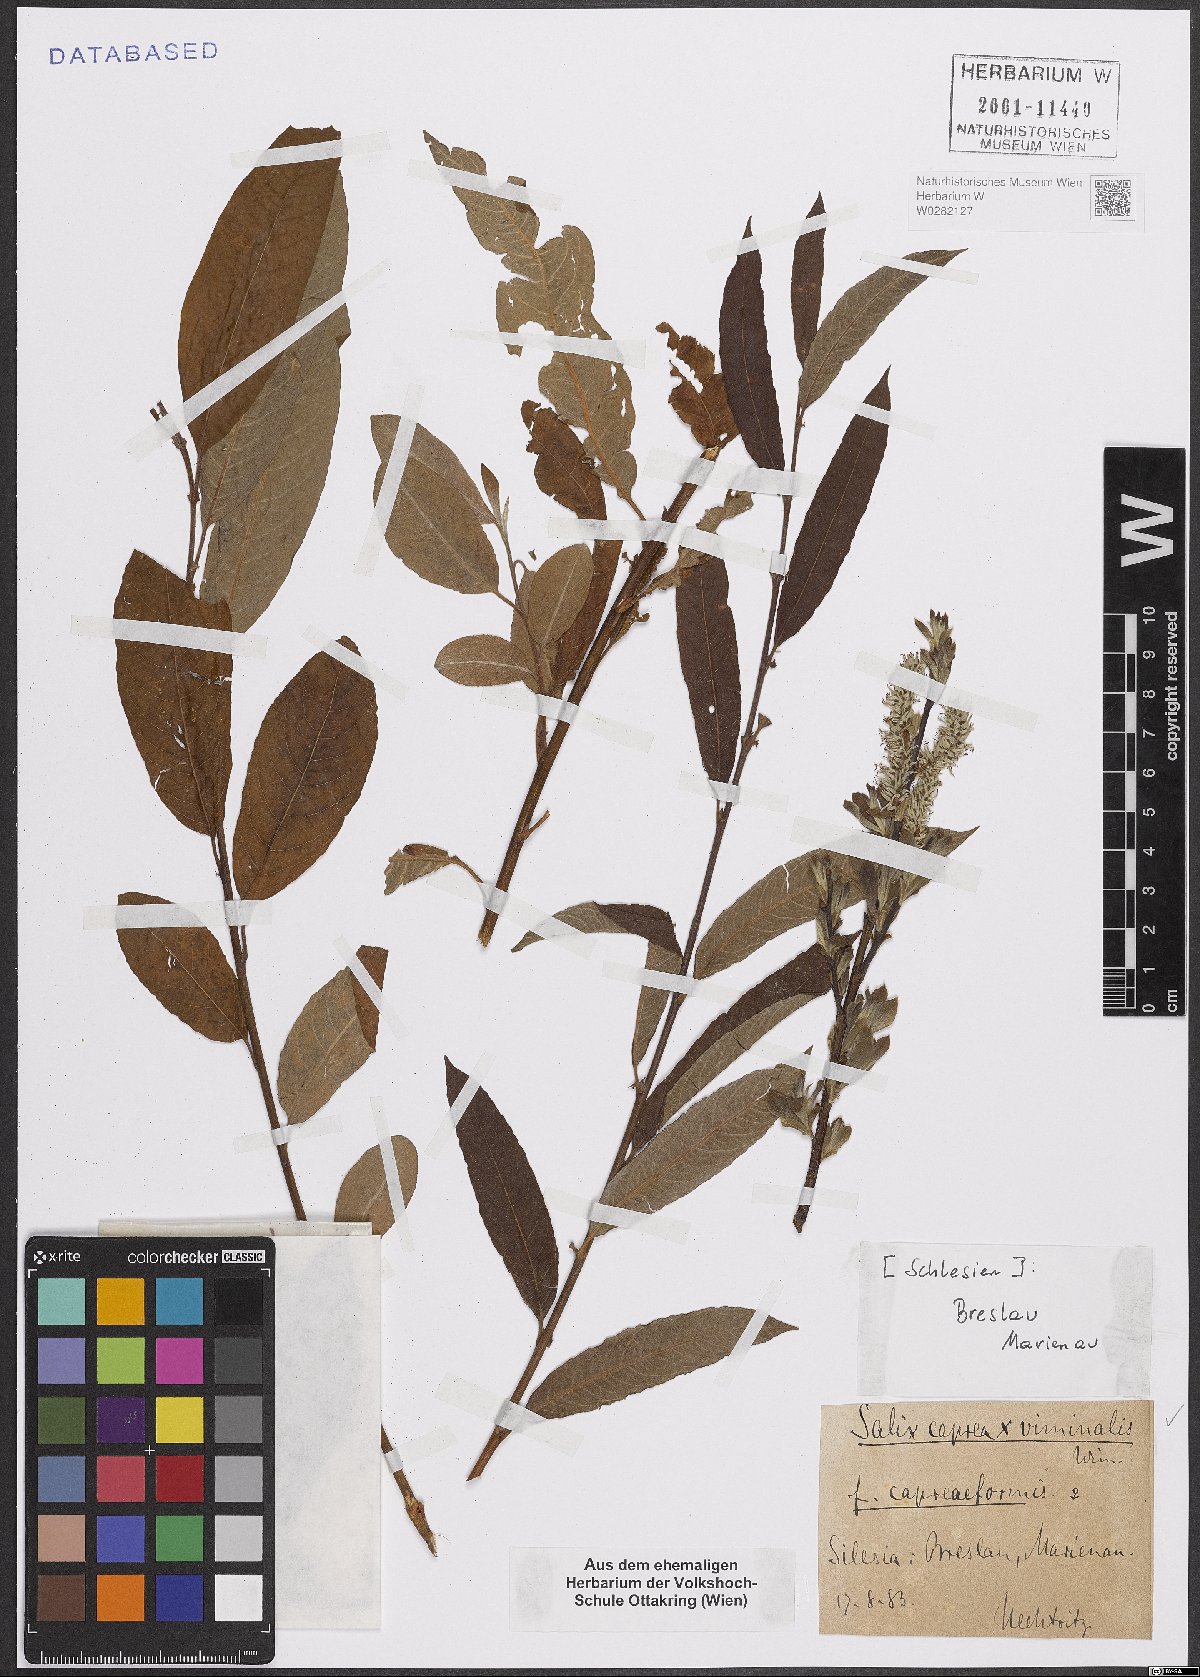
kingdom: Plantae
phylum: Tracheophyta
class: Magnoliopsida
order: Malpighiales
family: Salicaceae
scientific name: Salicaceae
